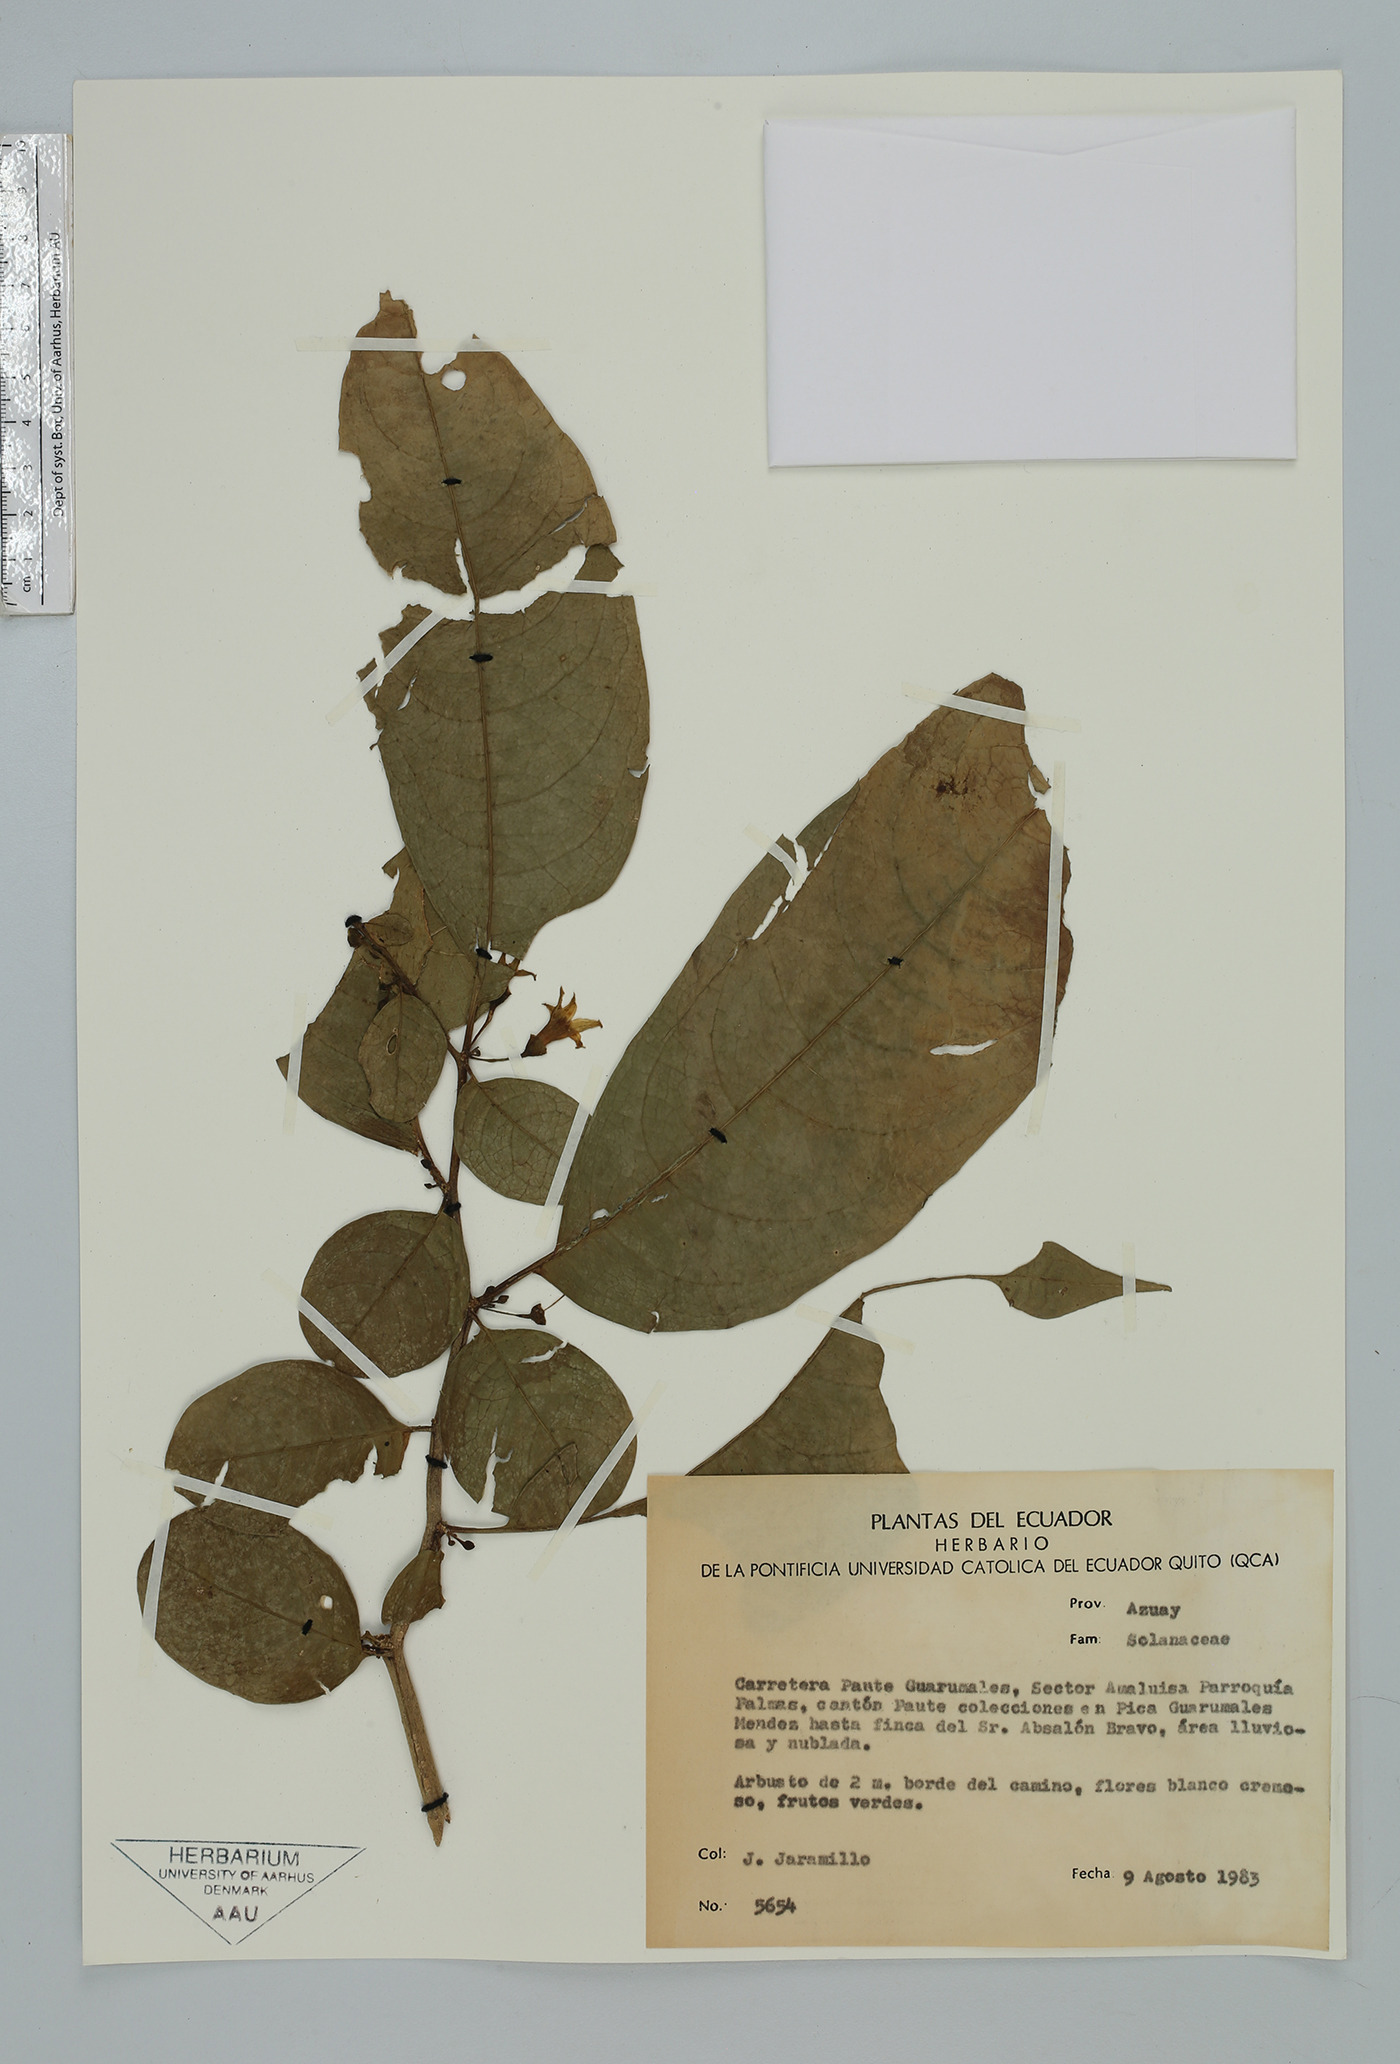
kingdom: Plantae
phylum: Tracheophyta
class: Magnoliopsida
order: Solanales
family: Solanaceae
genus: Cuatresia
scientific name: Cuatresia
